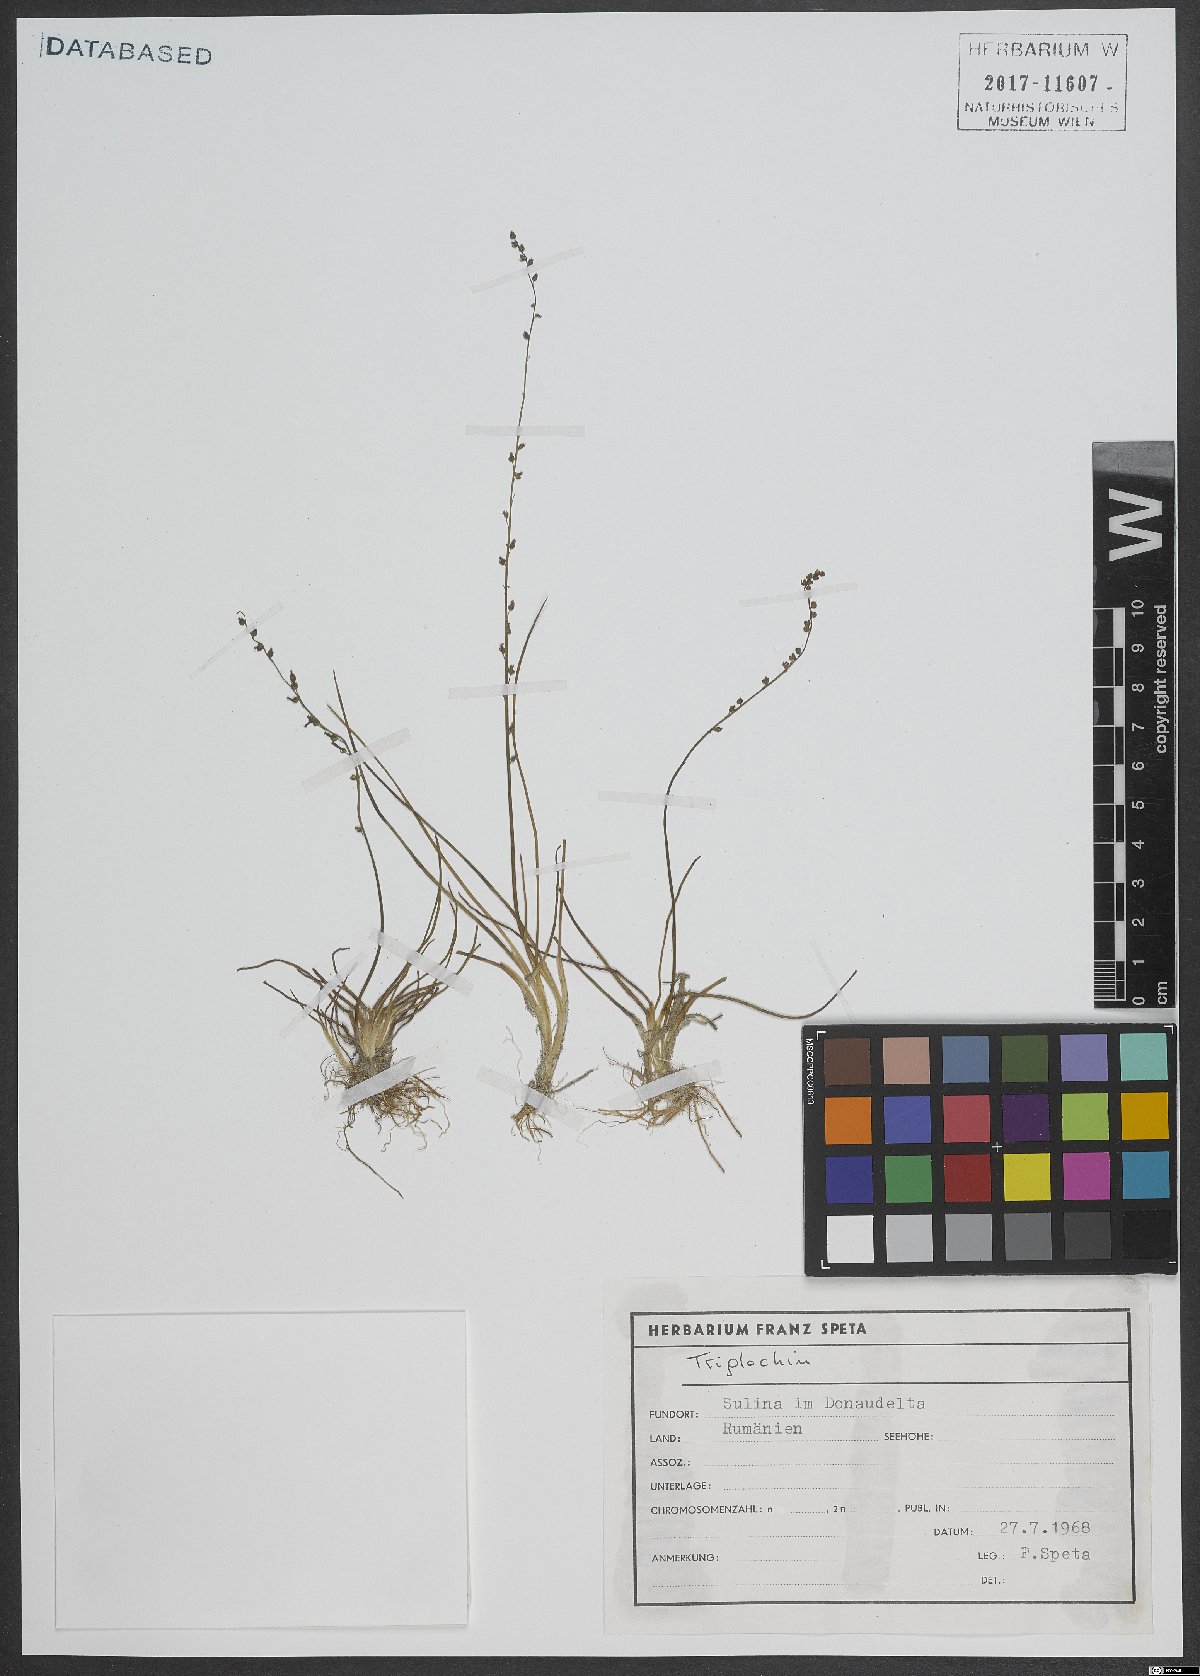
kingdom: Plantae
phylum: Tracheophyta
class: Liliopsida
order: Alismatales
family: Juncaginaceae
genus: Triglochin
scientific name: Triglochin palustris
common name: Marsh arrowgrass
